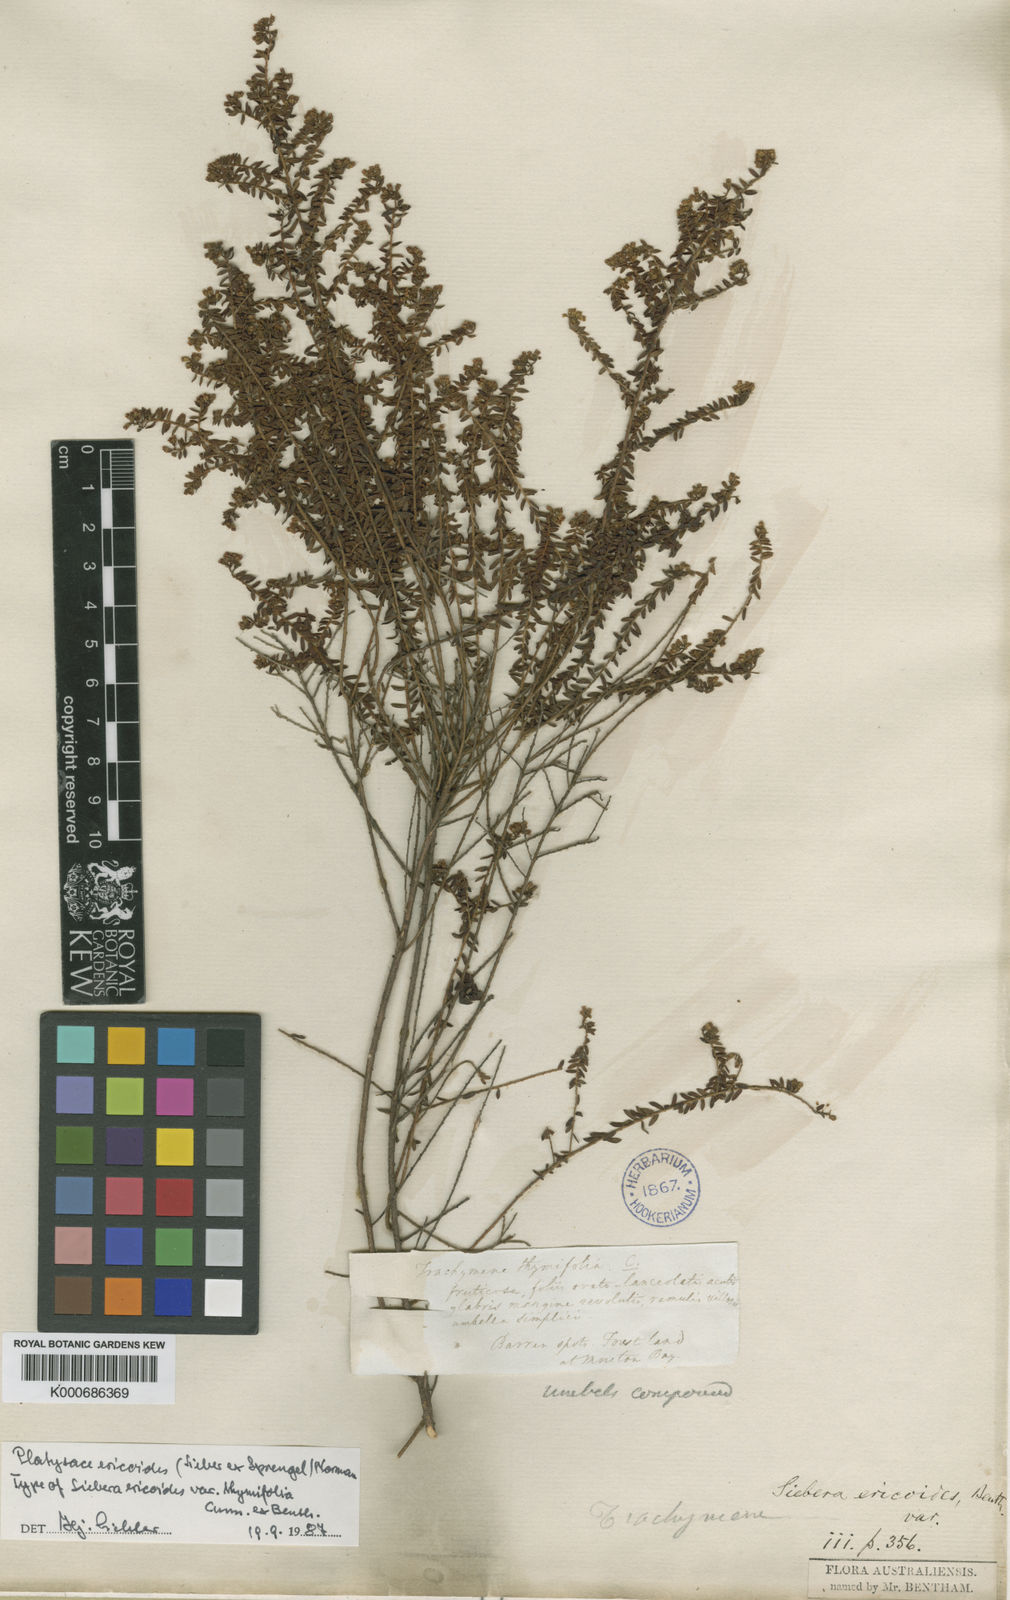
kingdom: Plantae
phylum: Tracheophyta
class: Magnoliopsida
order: Apiales
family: Apiaceae
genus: Platysace
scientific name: Platysace ericoides
